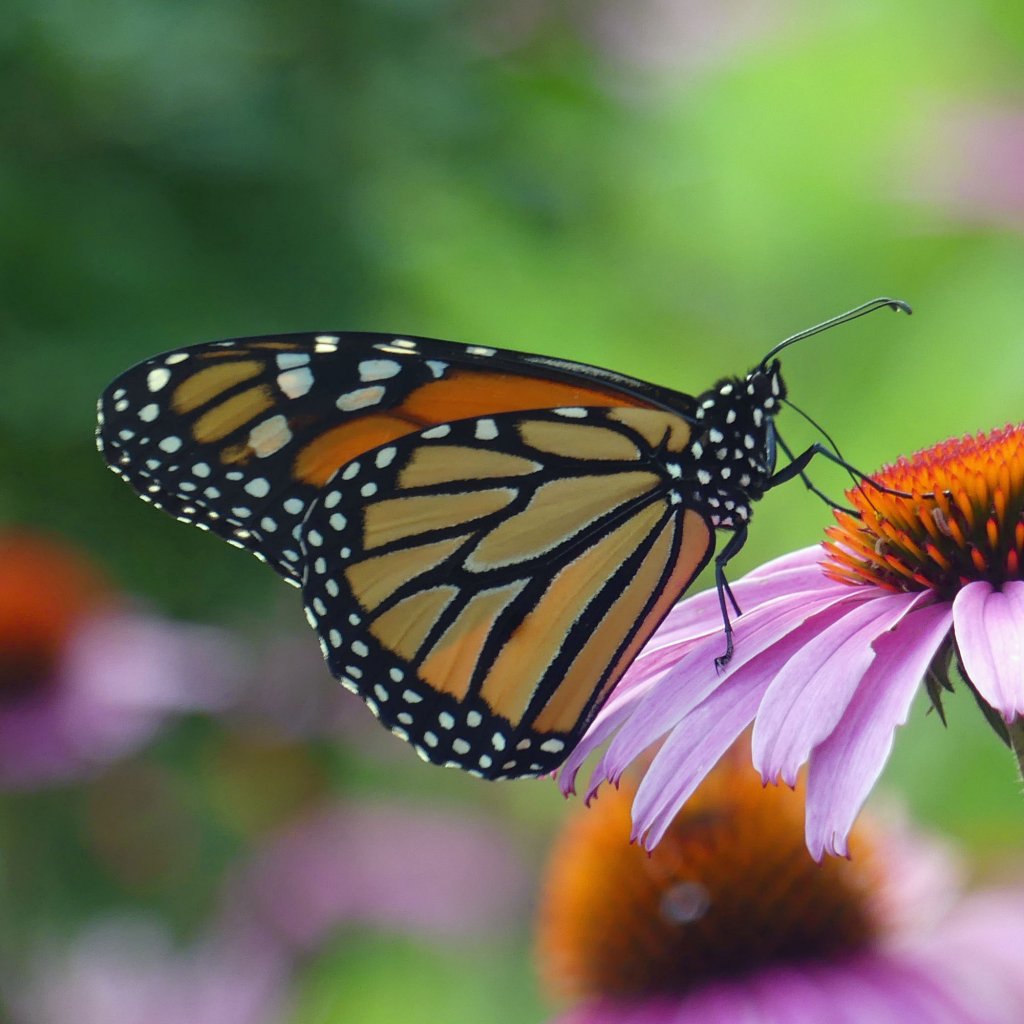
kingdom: Animalia
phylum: Arthropoda
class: Insecta
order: Lepidoptera
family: Nymphalidae
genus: Danaus
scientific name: Danaus plexippus
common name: Monarch
